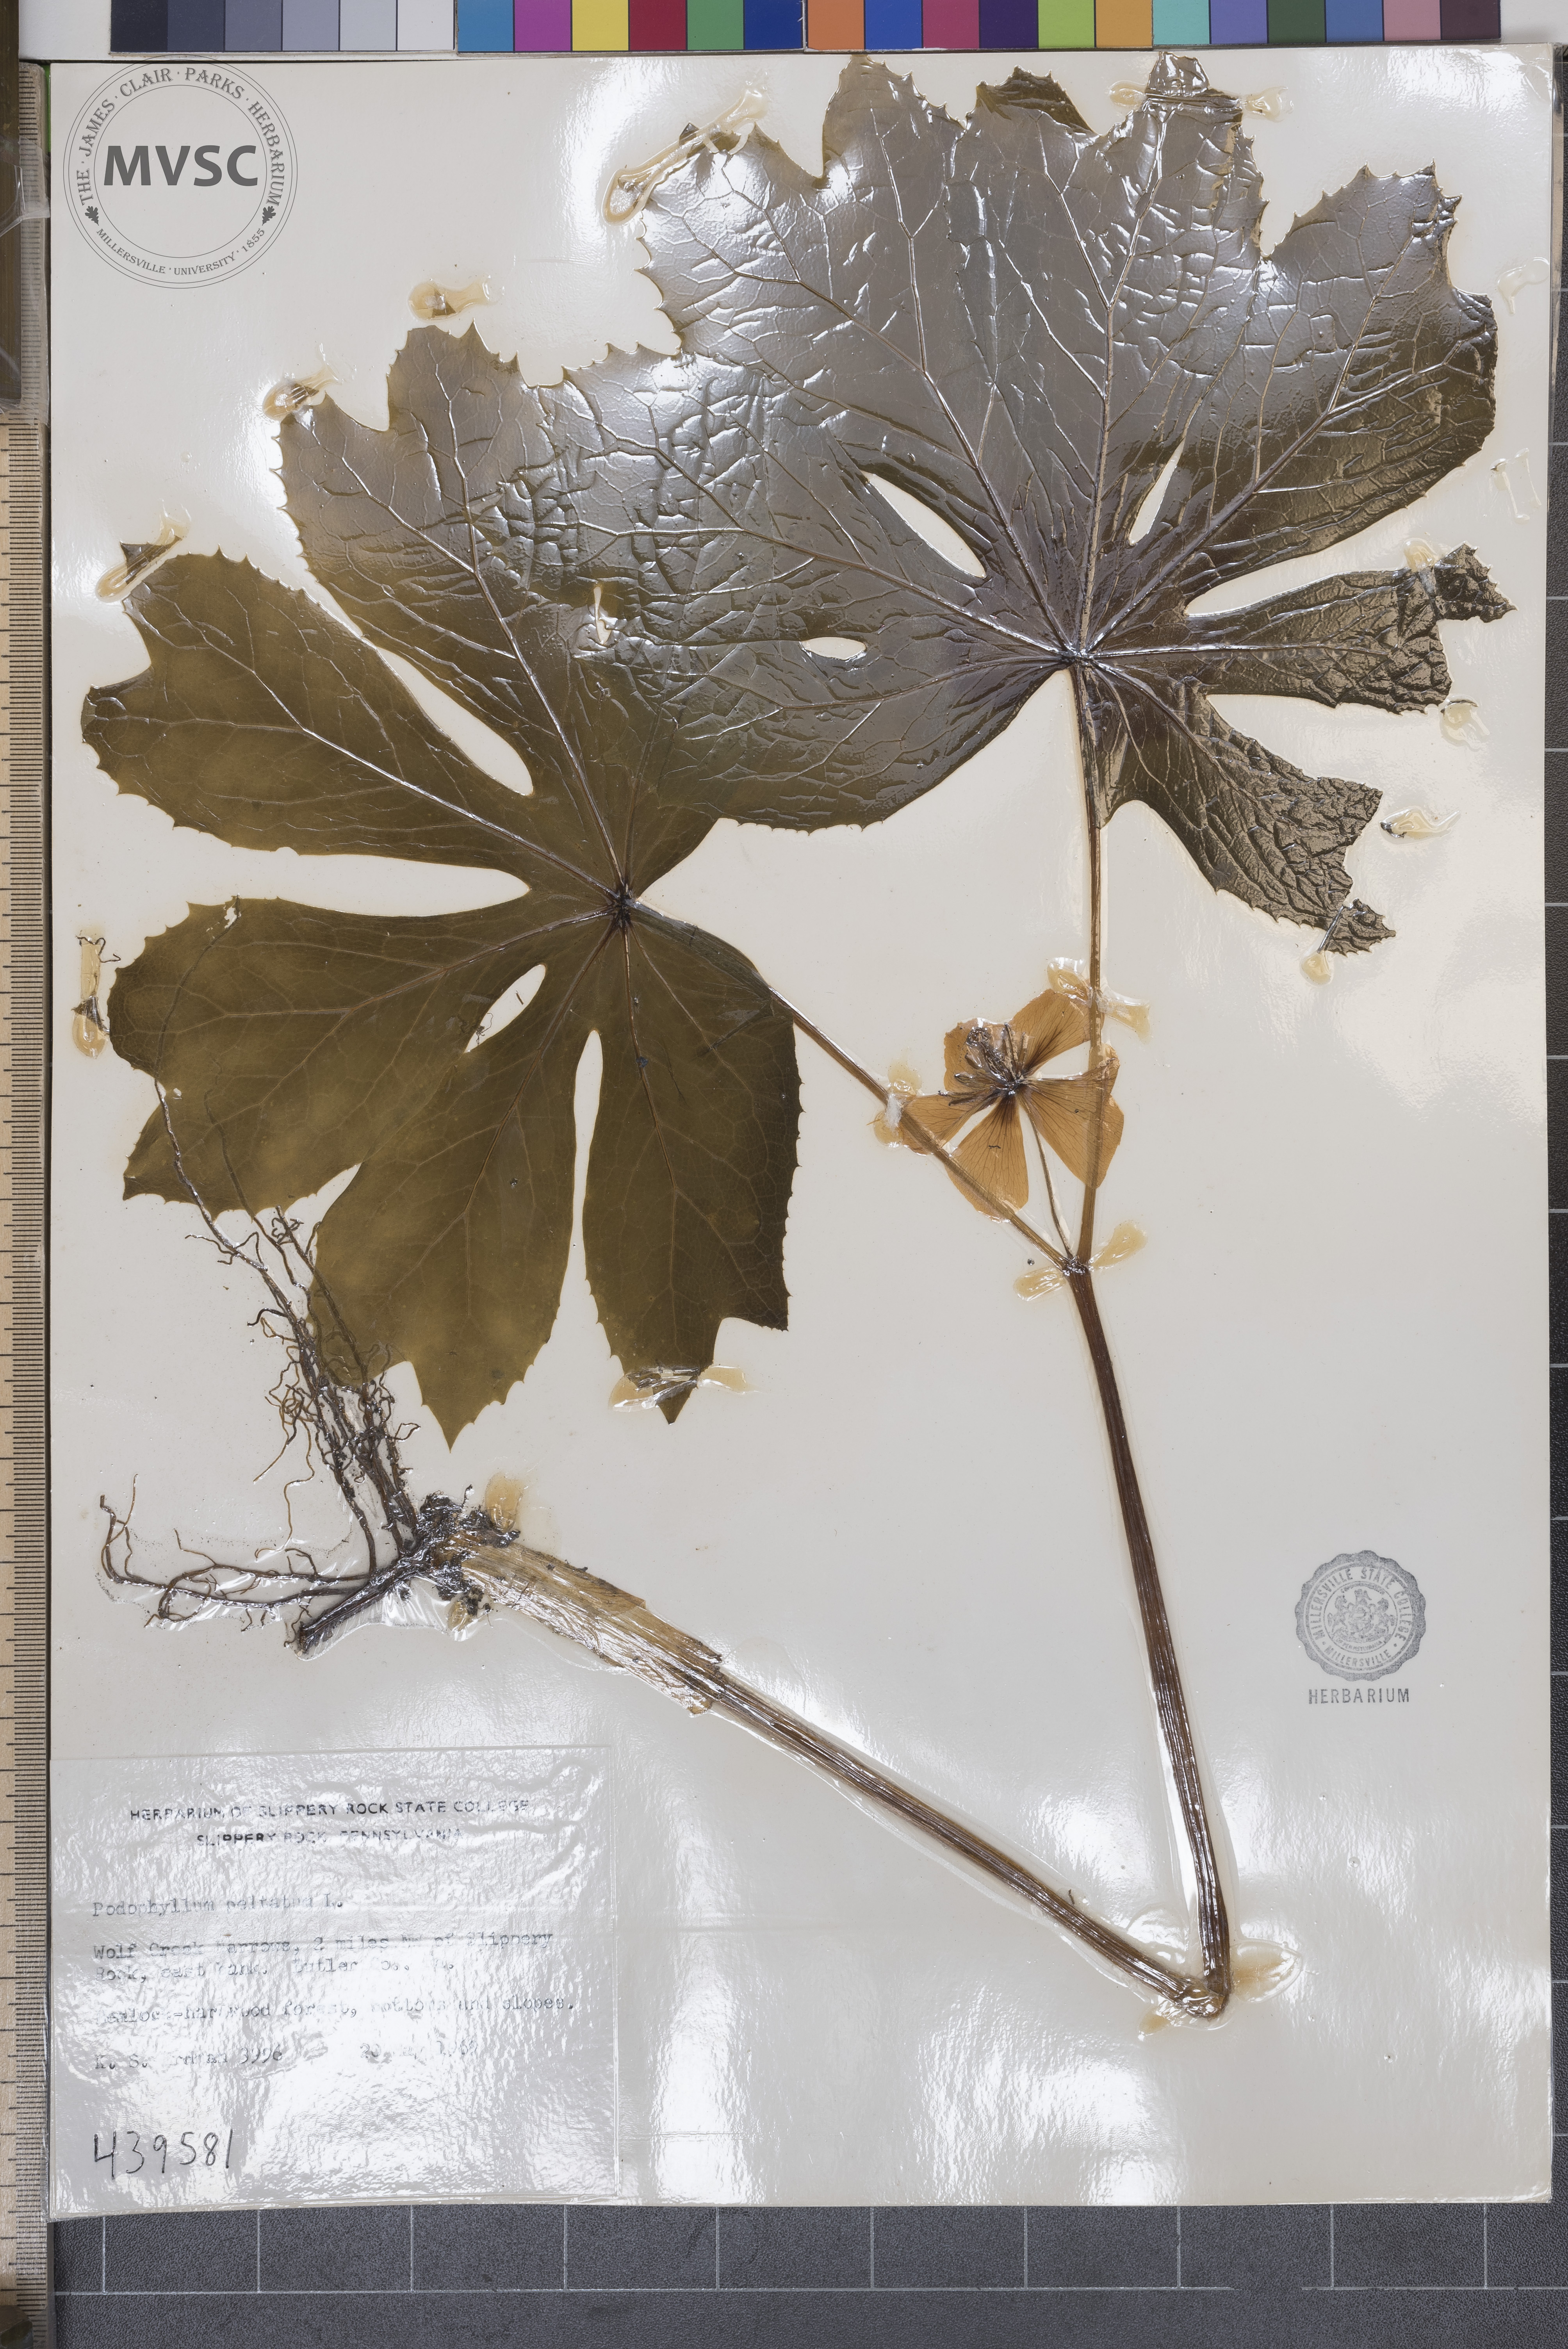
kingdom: Plantae
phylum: Tracheophyta
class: Magnoliopsida
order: Ranunculales
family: Berberidaceae
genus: Podophyllum
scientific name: Podophyllum peltatum
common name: Wild mandrake
